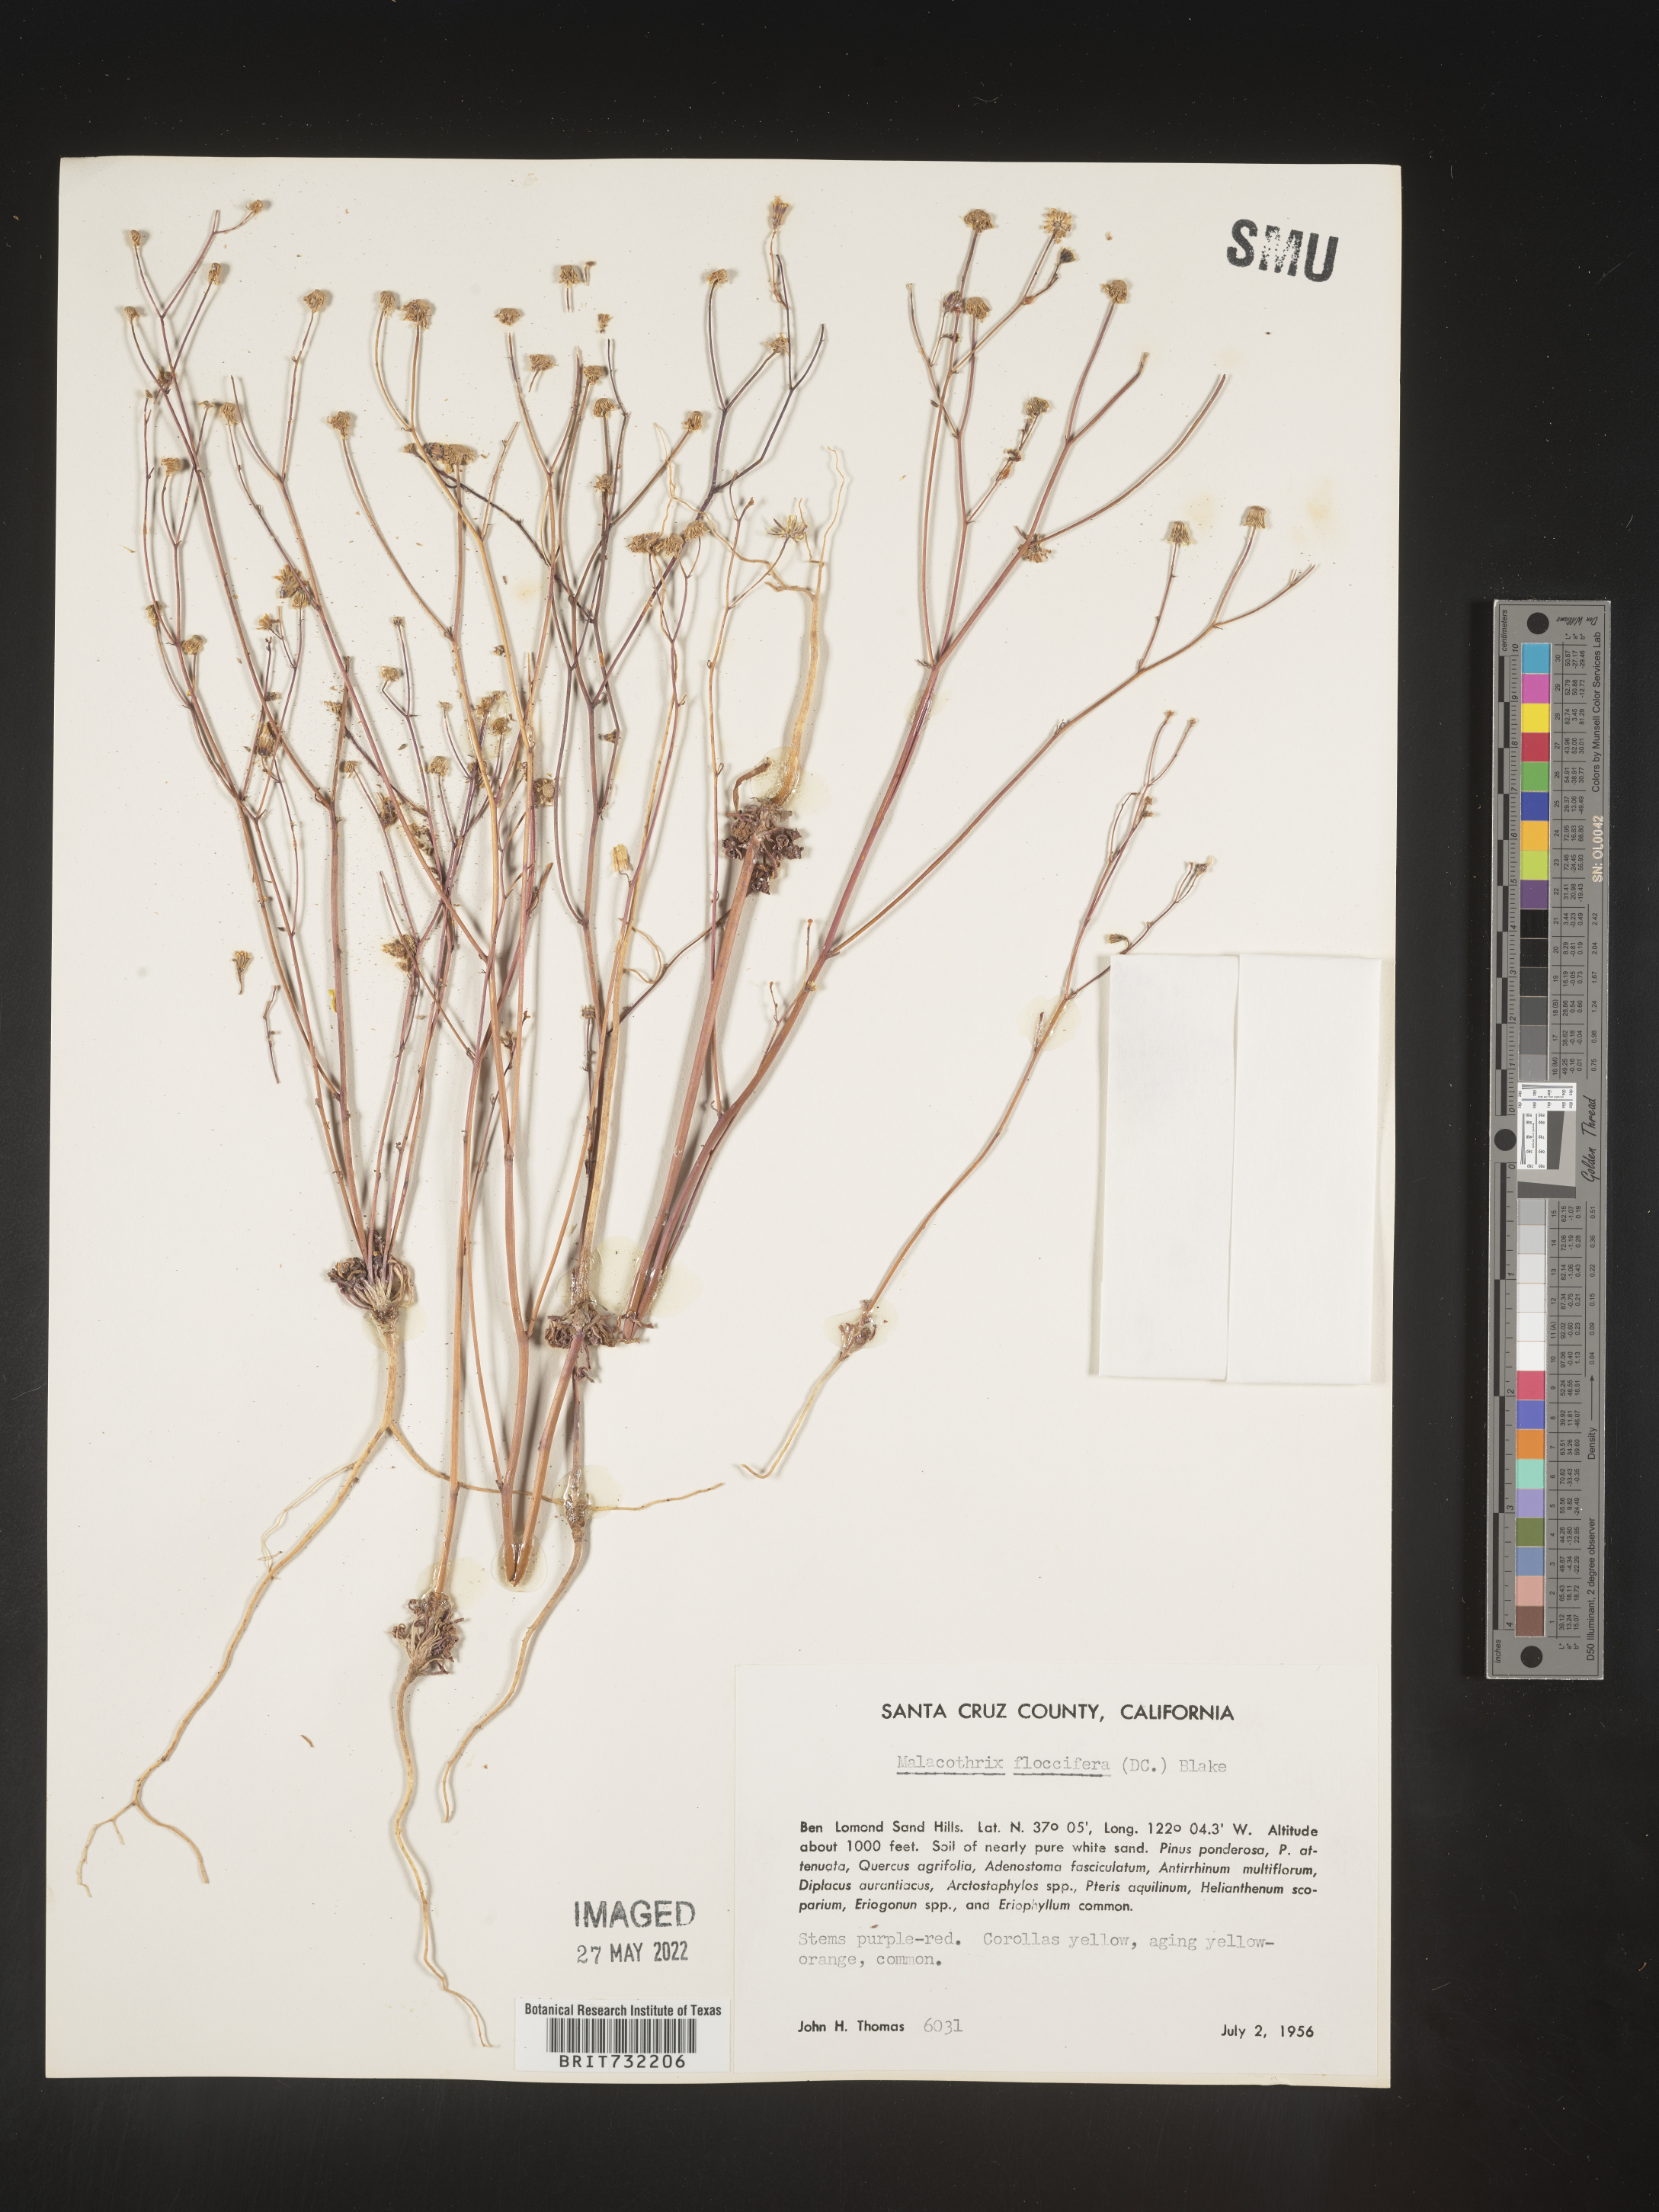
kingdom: Plantae
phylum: Tracheophyta
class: Magnoliopsida
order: Asterales
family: Asteraceae
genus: Malacothrix
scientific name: Malacothrix
